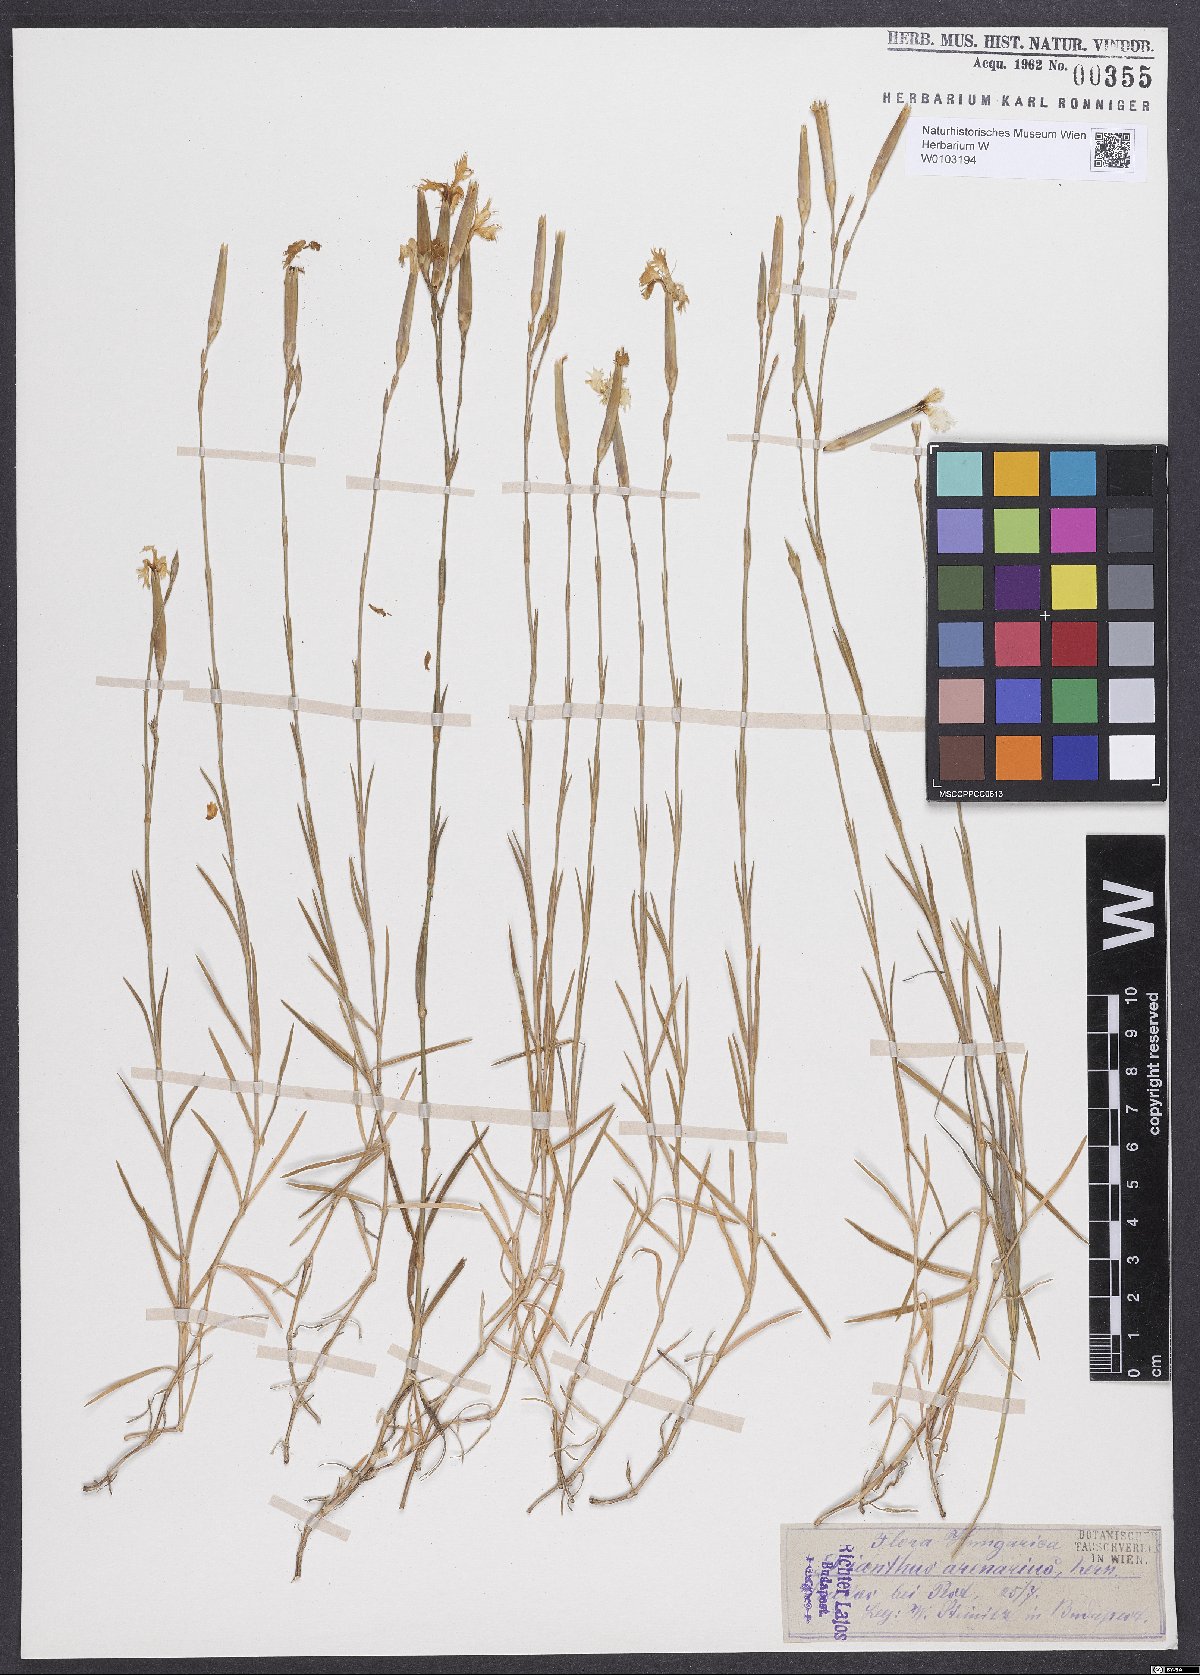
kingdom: Plantae
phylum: Tracheophyta
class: Magnoliopsida
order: Caryophyllales
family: Caryophyllaceae
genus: Dianthus
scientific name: Dianthus arenarius
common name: Stone pink
